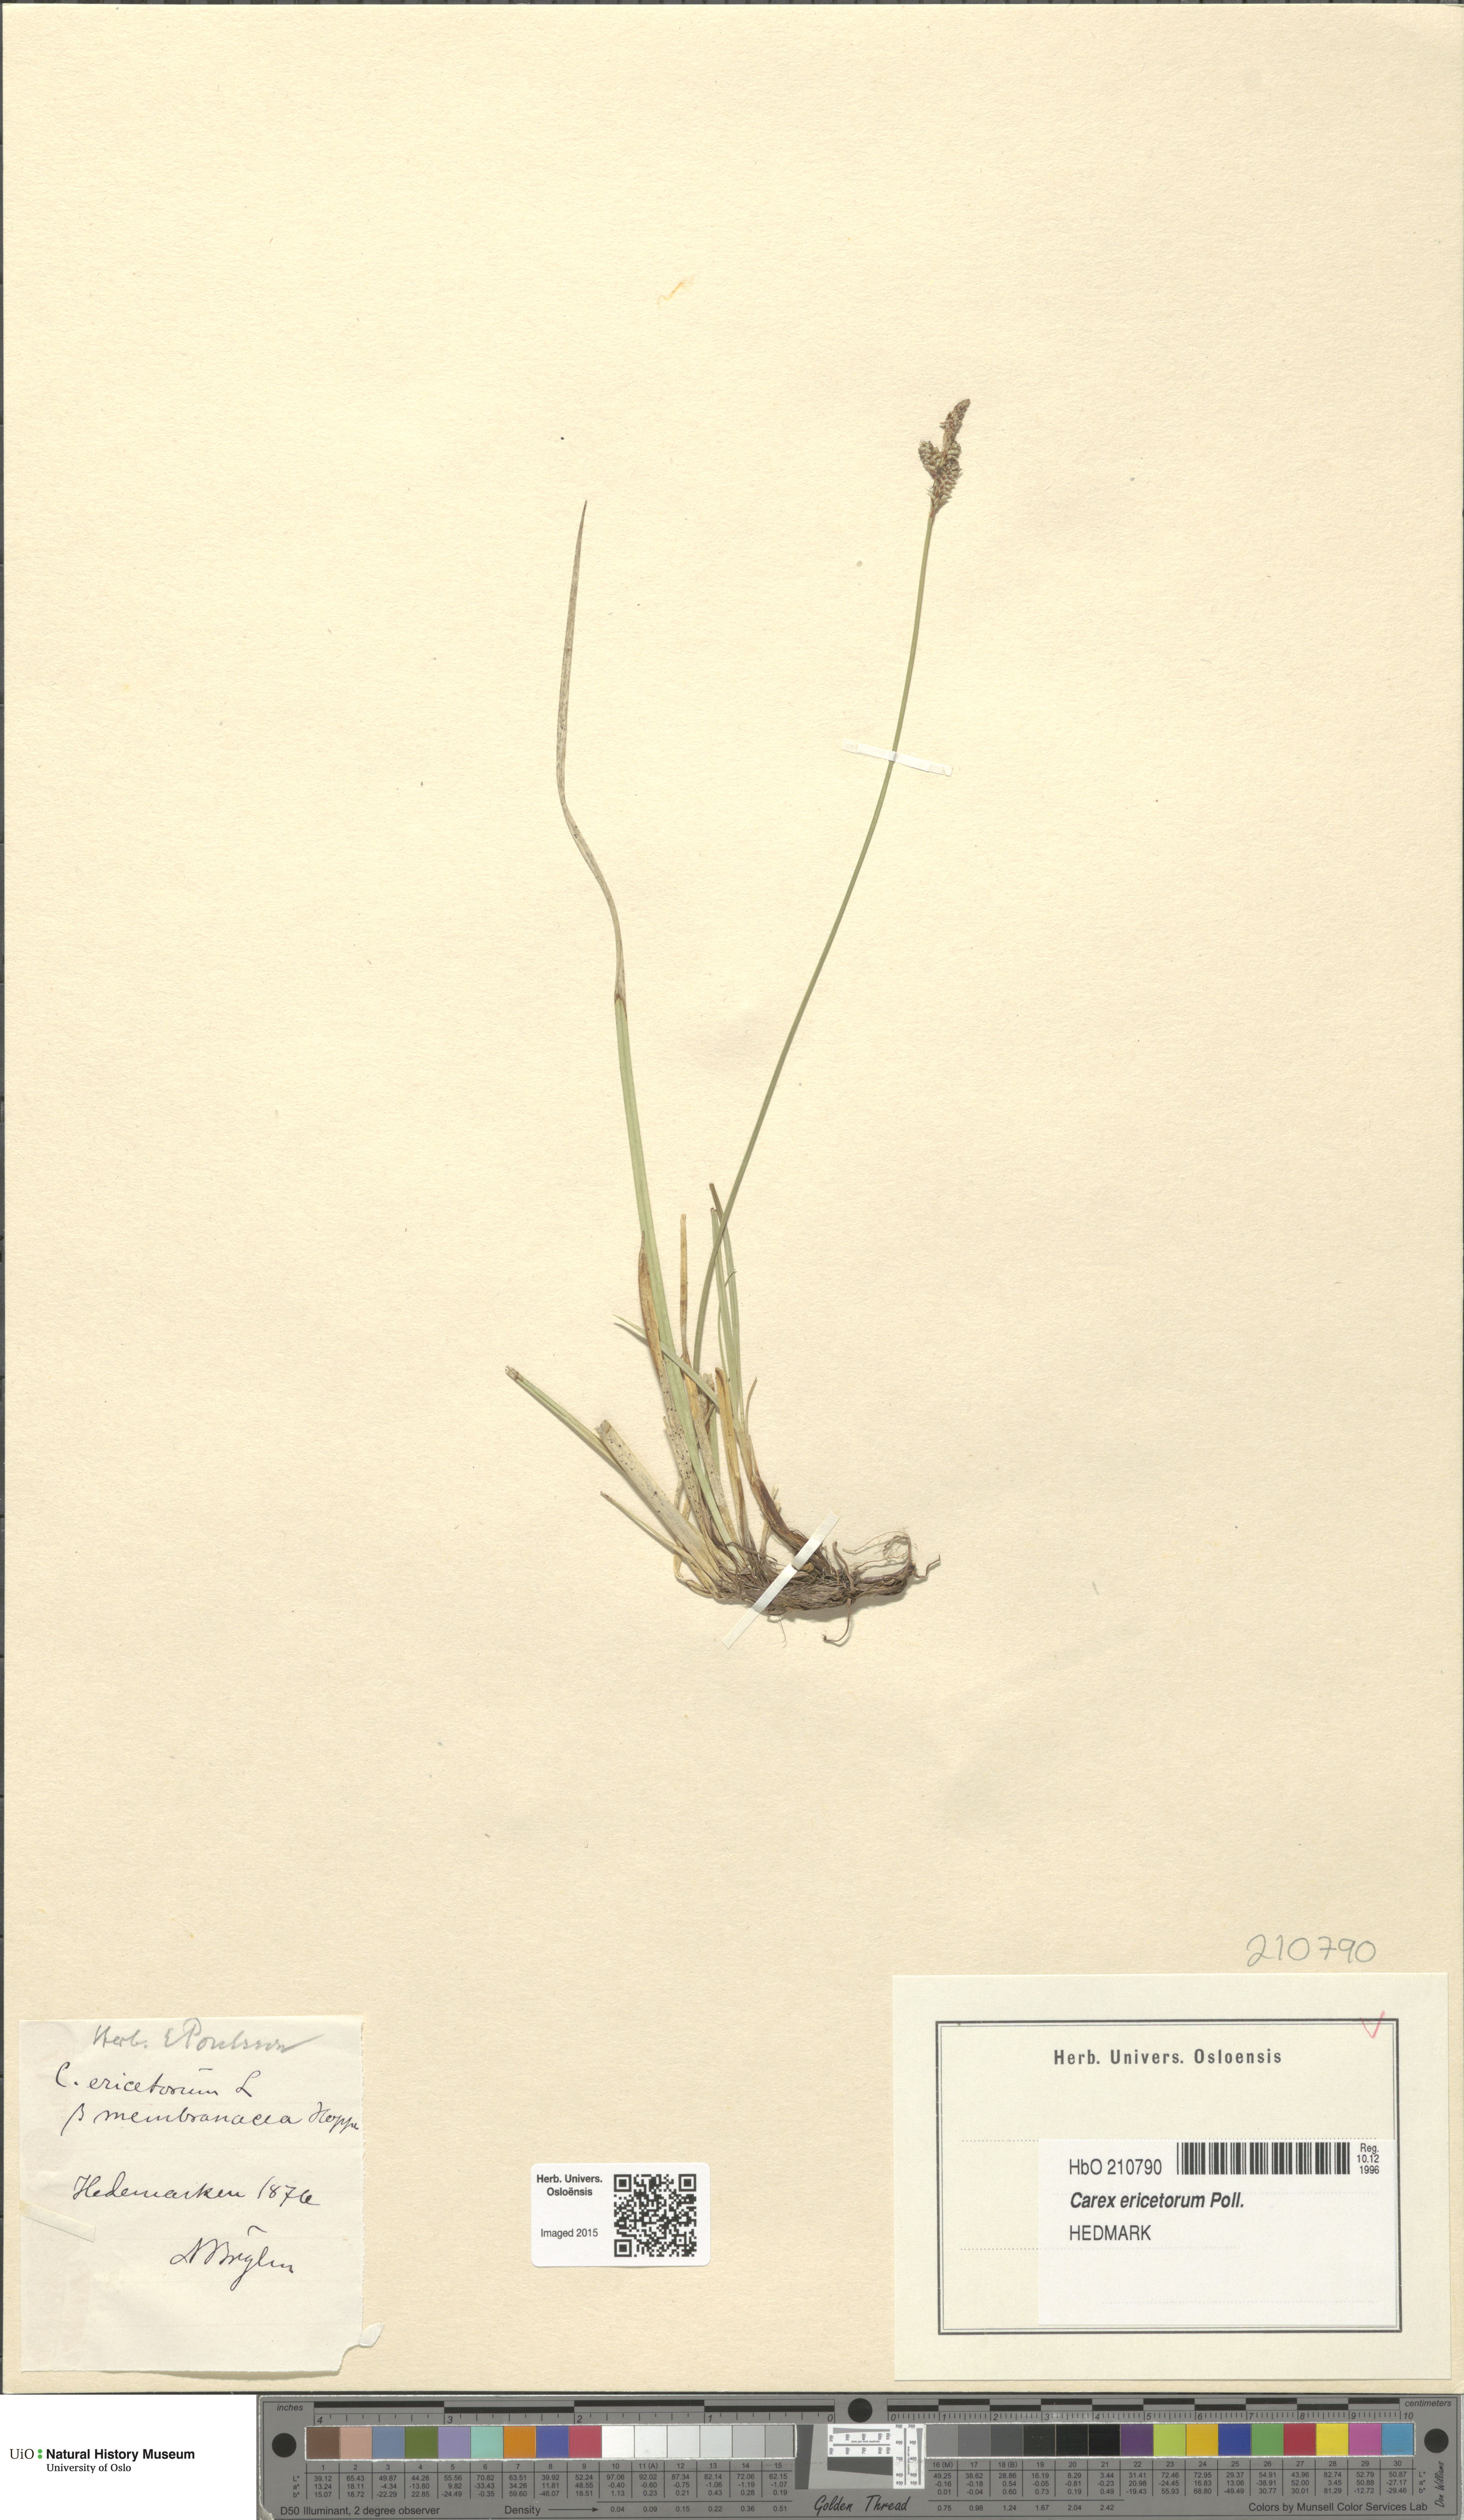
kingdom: Plantae
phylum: Tracheophyta
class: Liliopsida
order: Poales
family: Cyperaceae
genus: Carex
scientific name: Carex ericetorum
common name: Rare spring-sedge
